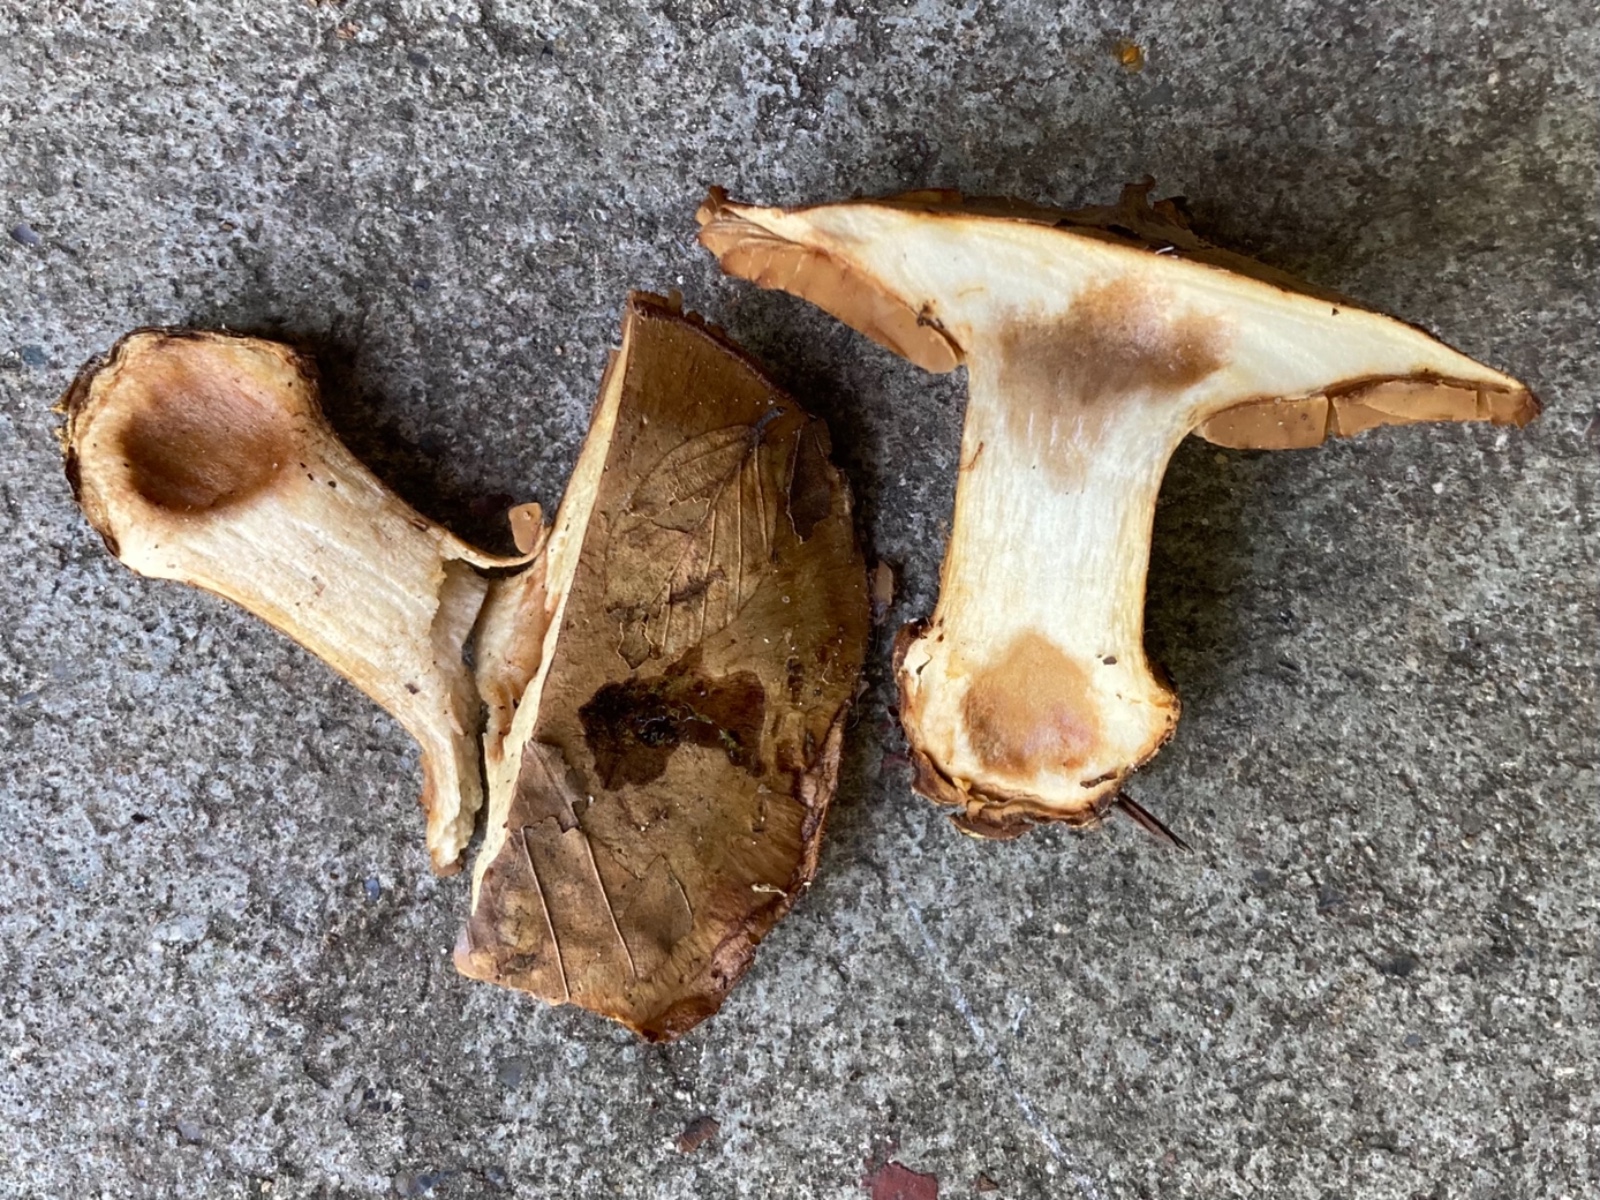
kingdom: Fungi
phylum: Basidiomycota
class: Agaricomycetes
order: Agaricales
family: Cortinariaceae
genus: Phlegmacium
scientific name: Phlegmacium luhmannii
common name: musegrå slørhat
